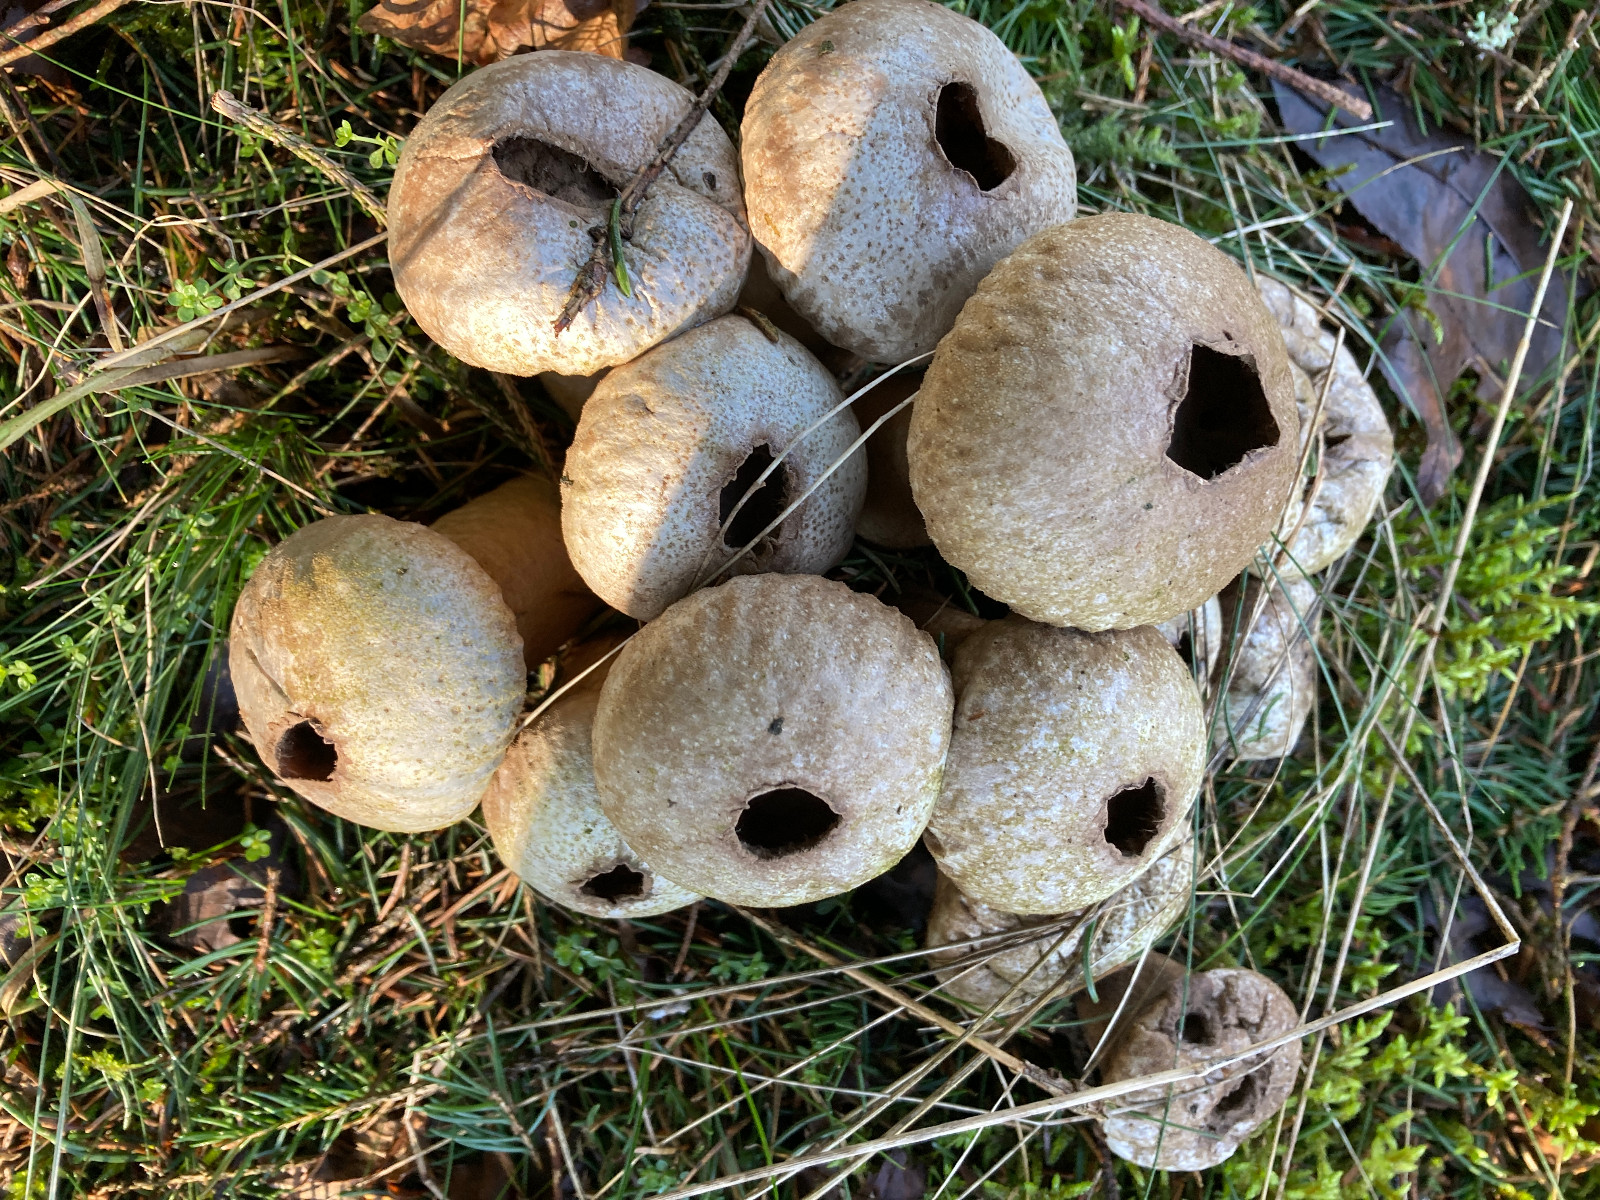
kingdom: Fungi
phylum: Basidiomycota
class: Agaricomycetes
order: Agaricales
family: Agaricaceae
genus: Lycoperdon
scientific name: Lycoperdon
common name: støvbold
